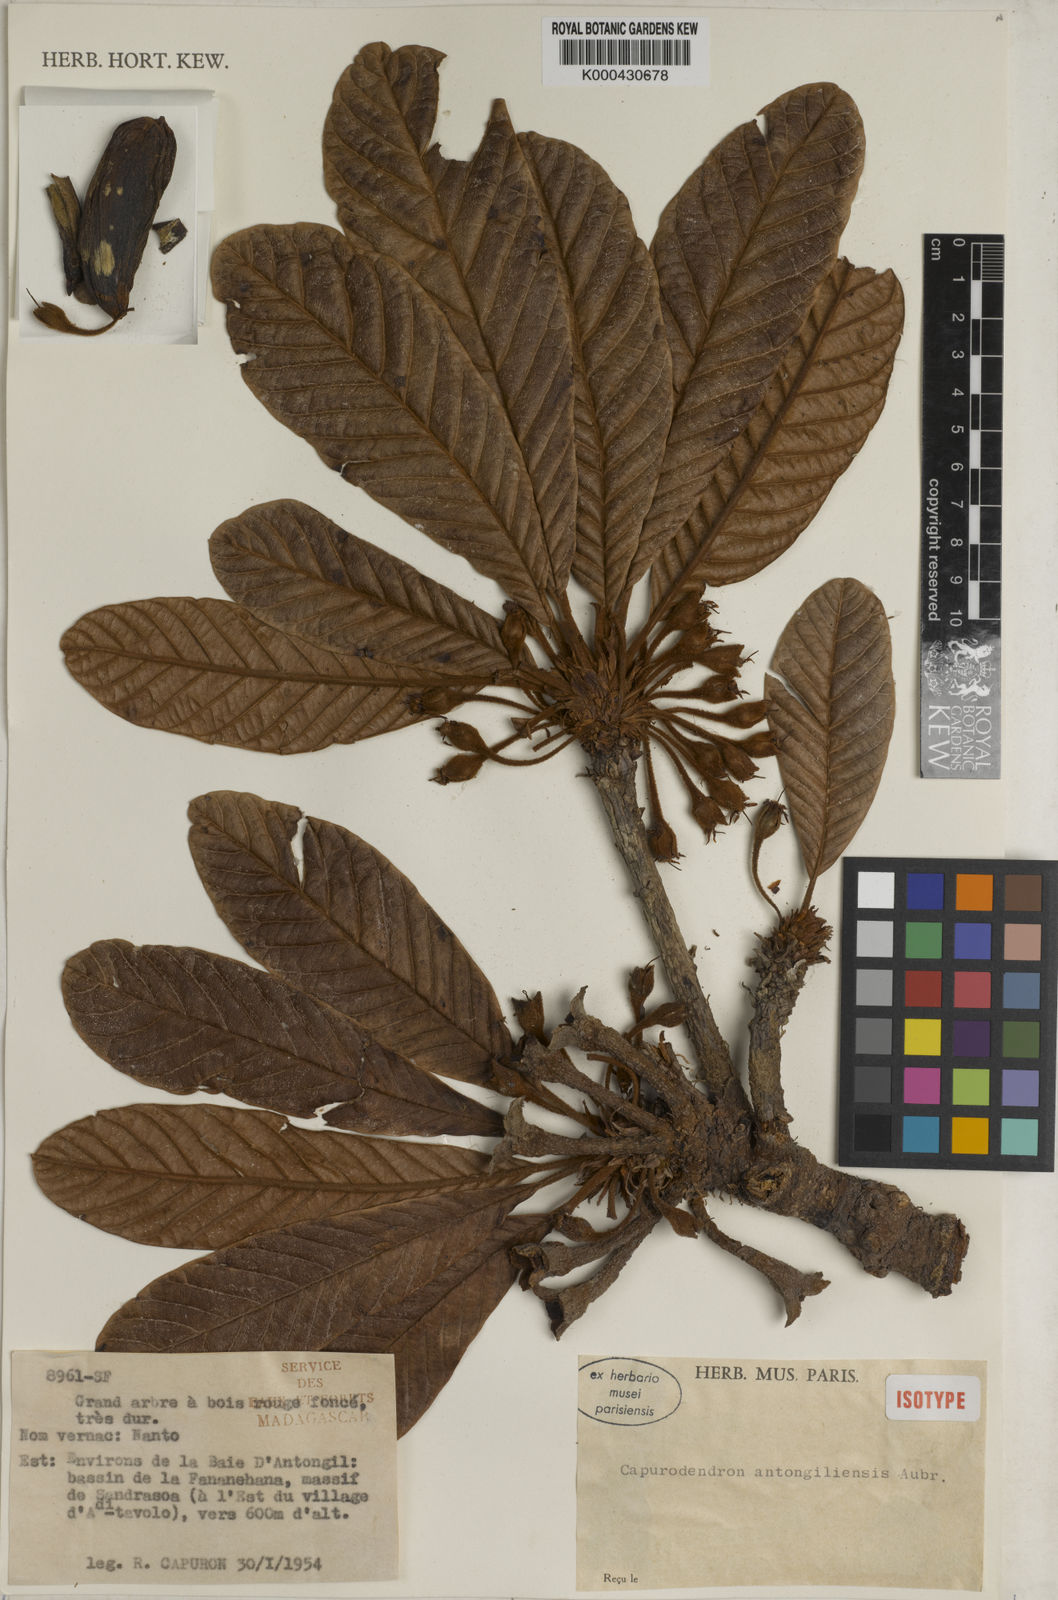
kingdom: Plantae
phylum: Tracheophyta
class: Magnoliopsida
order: Ericales
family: Sapotaceae
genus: Capurodendron
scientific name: Capurodendron
